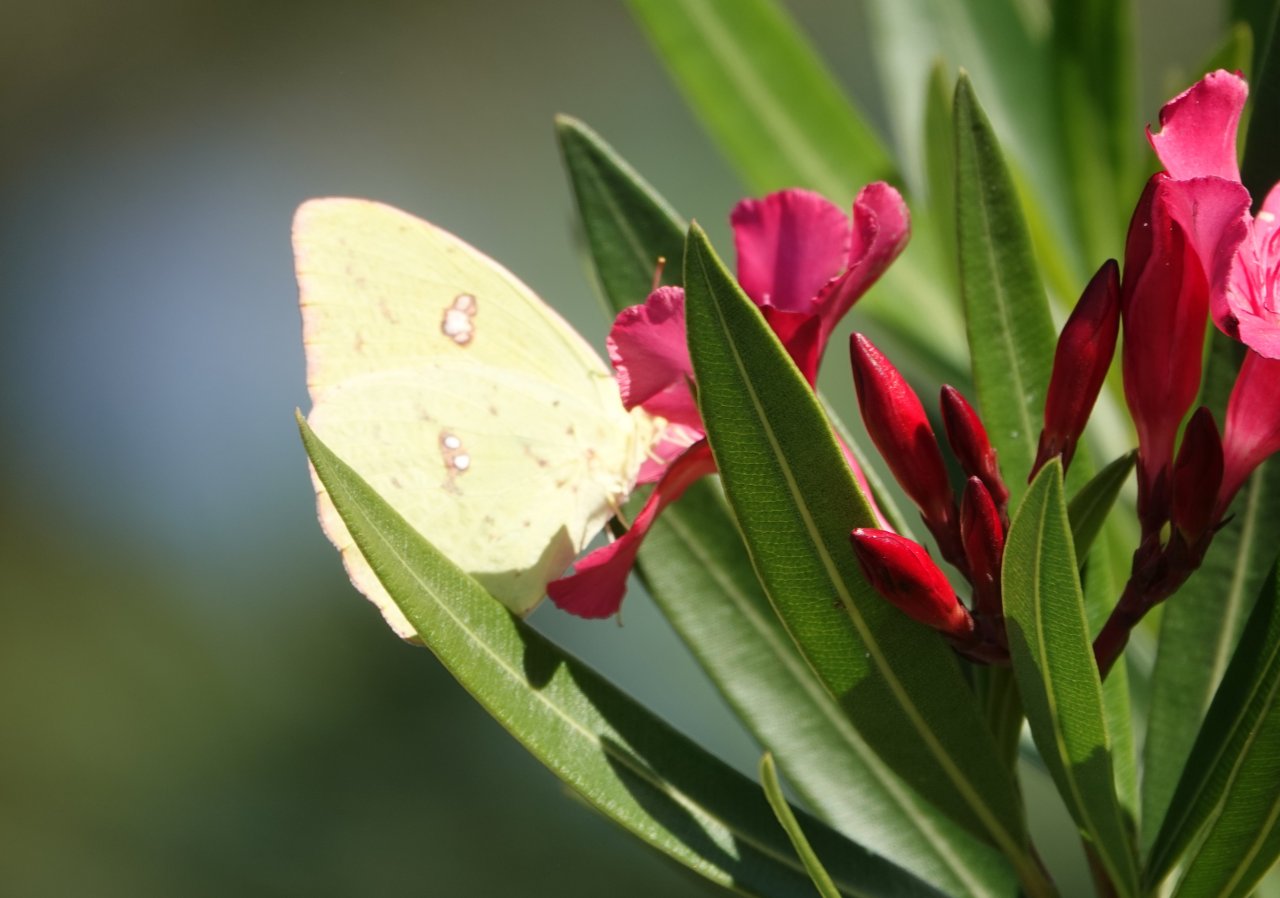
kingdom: Animalia
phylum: Arthropoda
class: Insecta
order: Lepidoptera
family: Pieridae
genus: Phoebis
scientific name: Phoebis sennae
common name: Cloudless Sulphur
